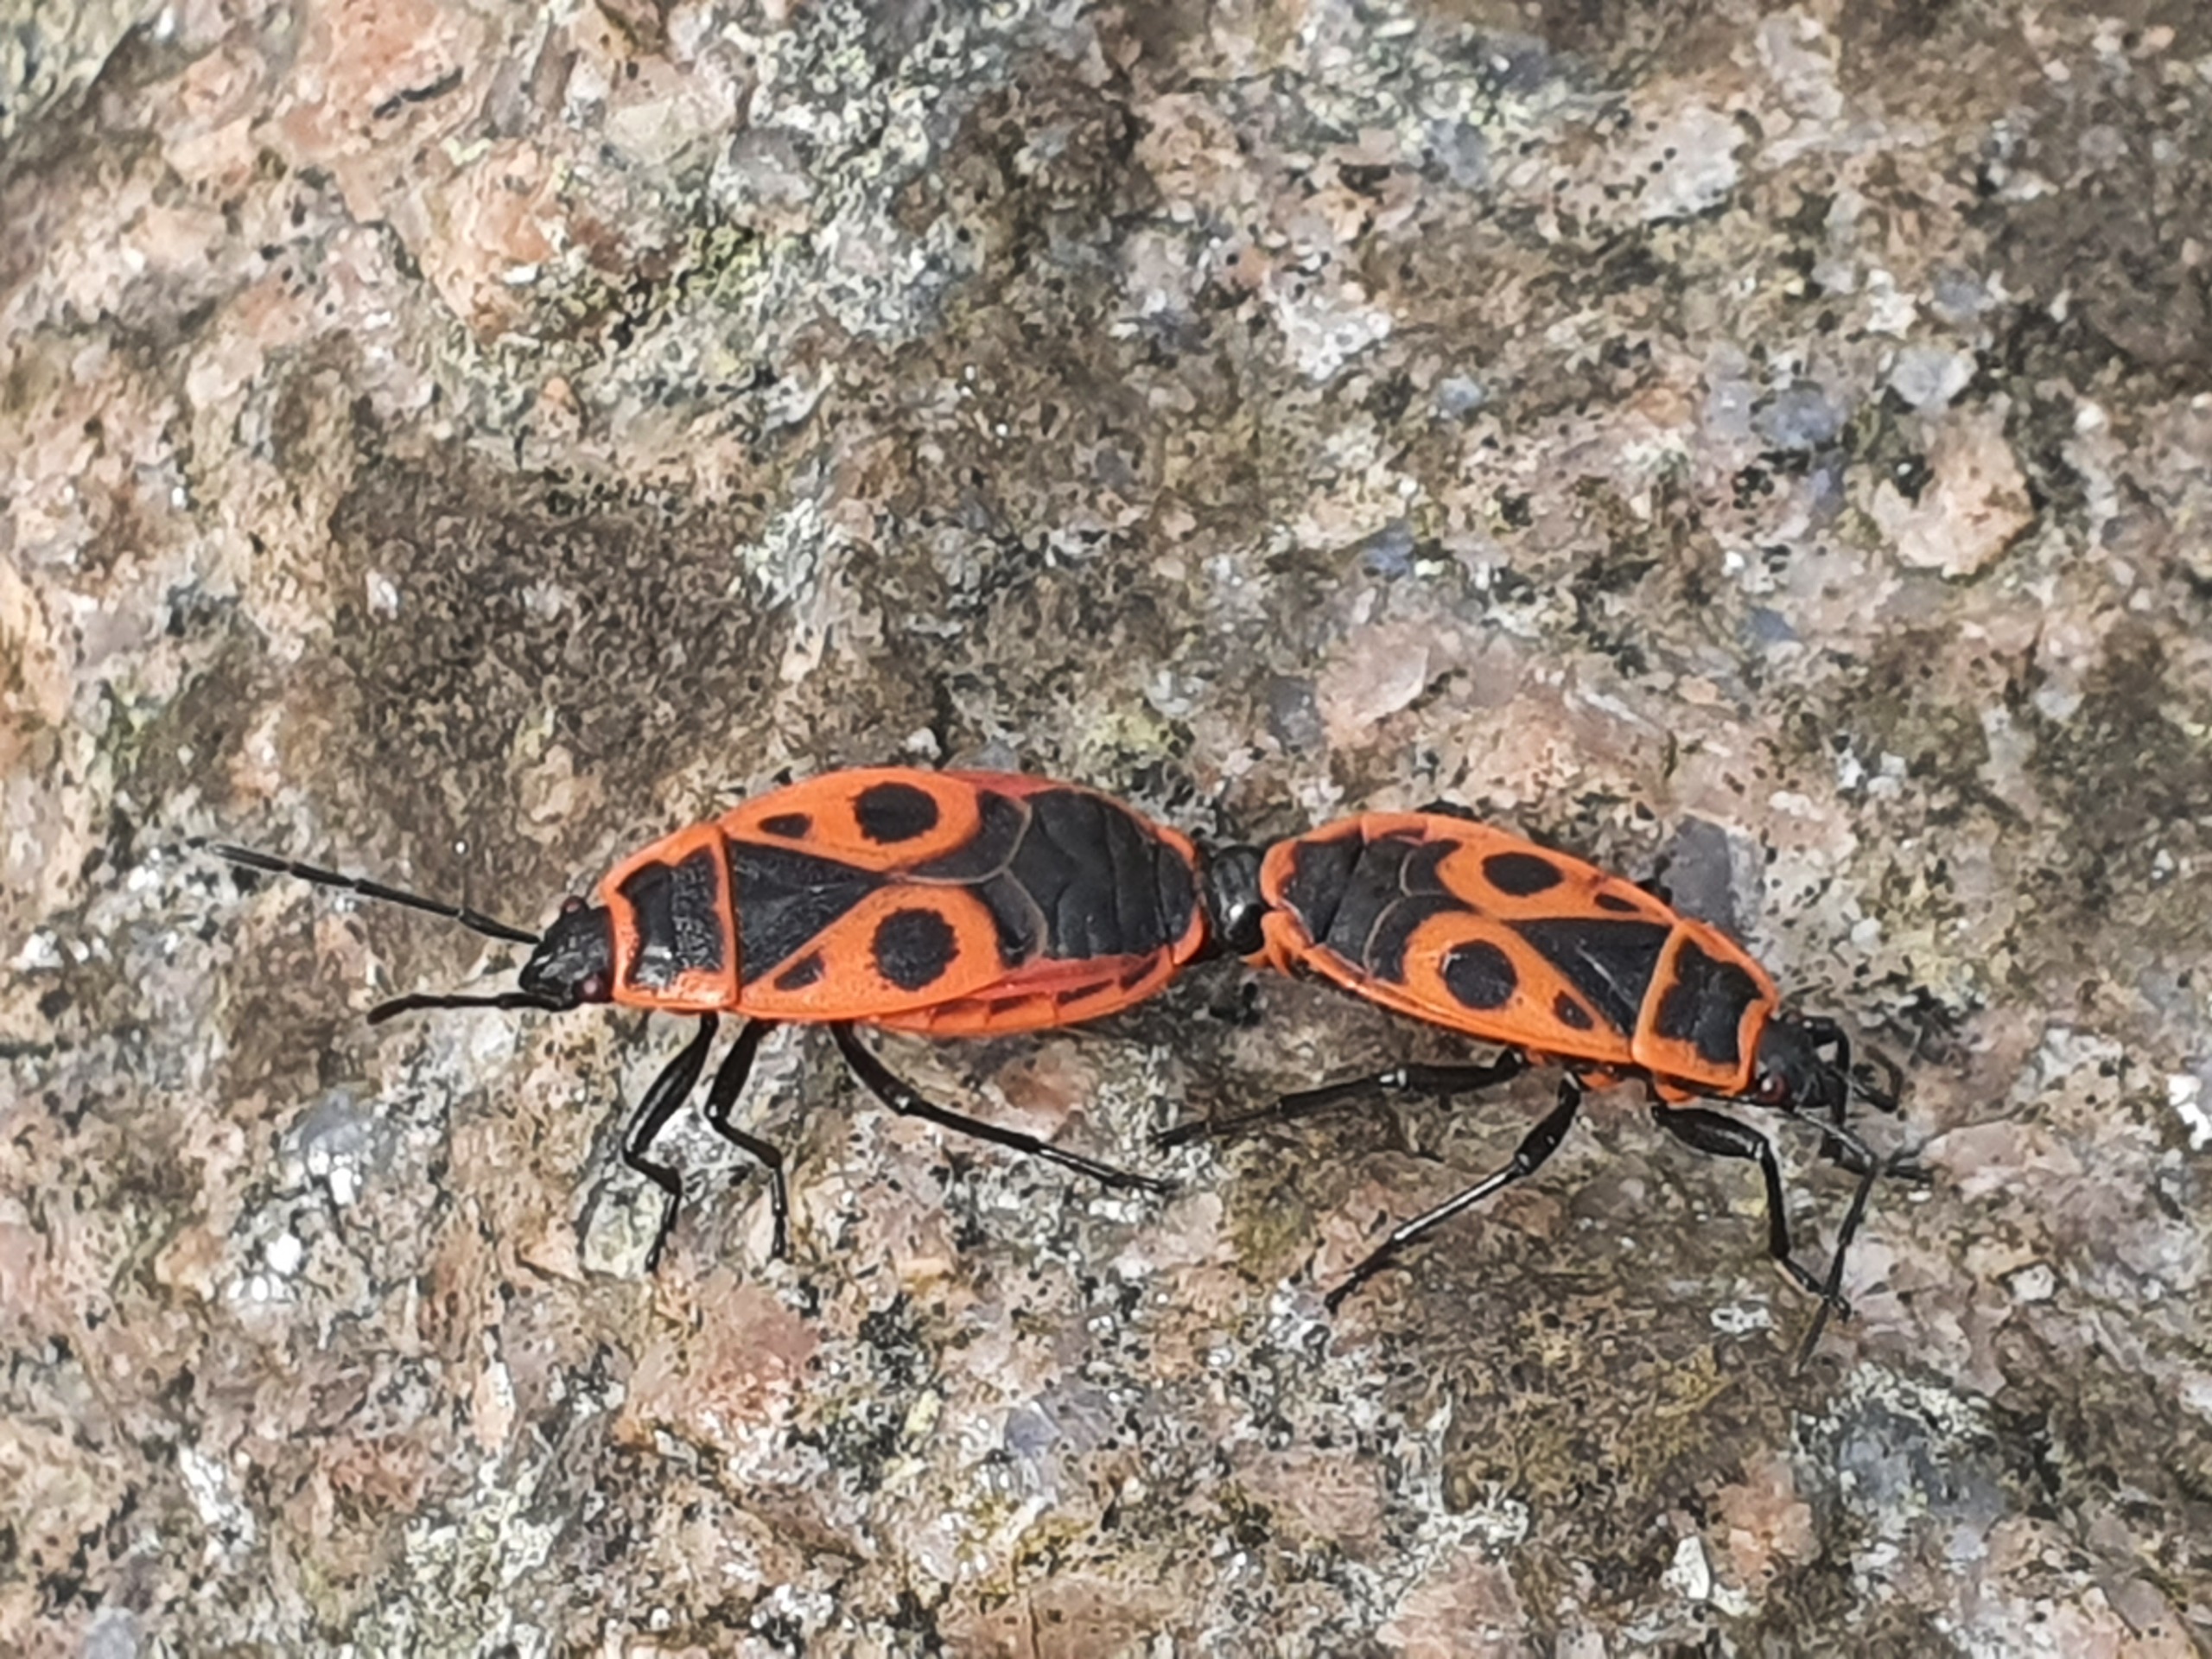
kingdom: Animalia
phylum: Arthropoda
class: Insecta
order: Hemiptera
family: Pyrrhocoridae
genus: Pyrrhocoris
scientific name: Pyrrhocoris apterus
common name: Ildtæge
